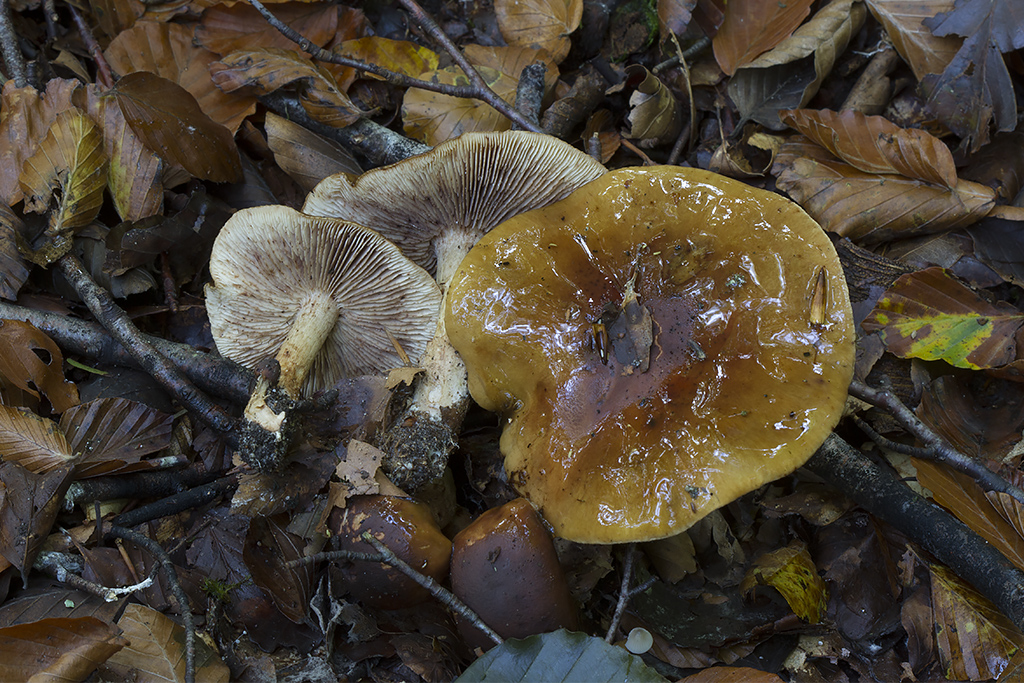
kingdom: Fungi
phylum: Basidiomycota
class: Agaricomycetes
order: Agaricales
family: Tricholomataceae
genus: Tricholoma
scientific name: Tricholoma ustale
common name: sveden ridderhat
